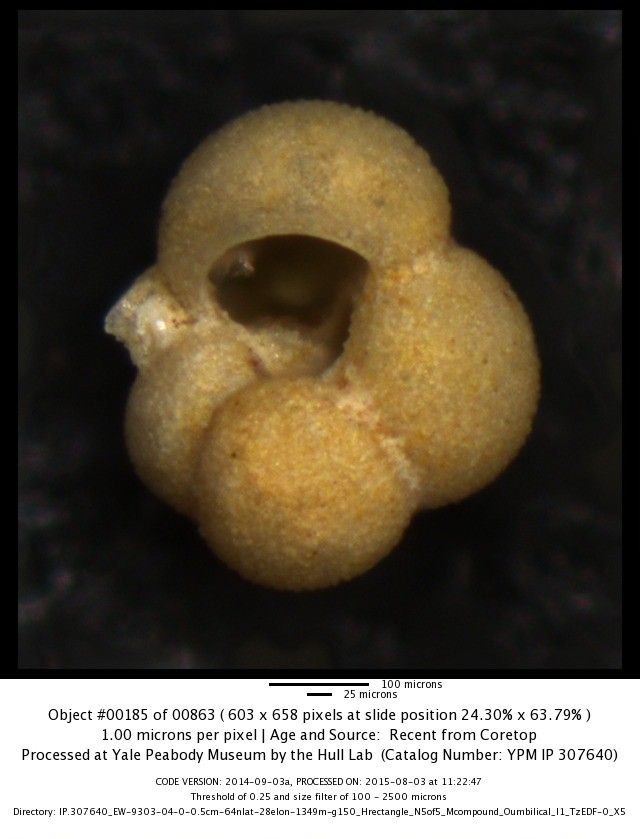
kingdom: Chromista
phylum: Foraminifera
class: Globothalamea
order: Rotaliida
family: Globigerinidae
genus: Globigerina
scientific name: Globigerina bulloides
